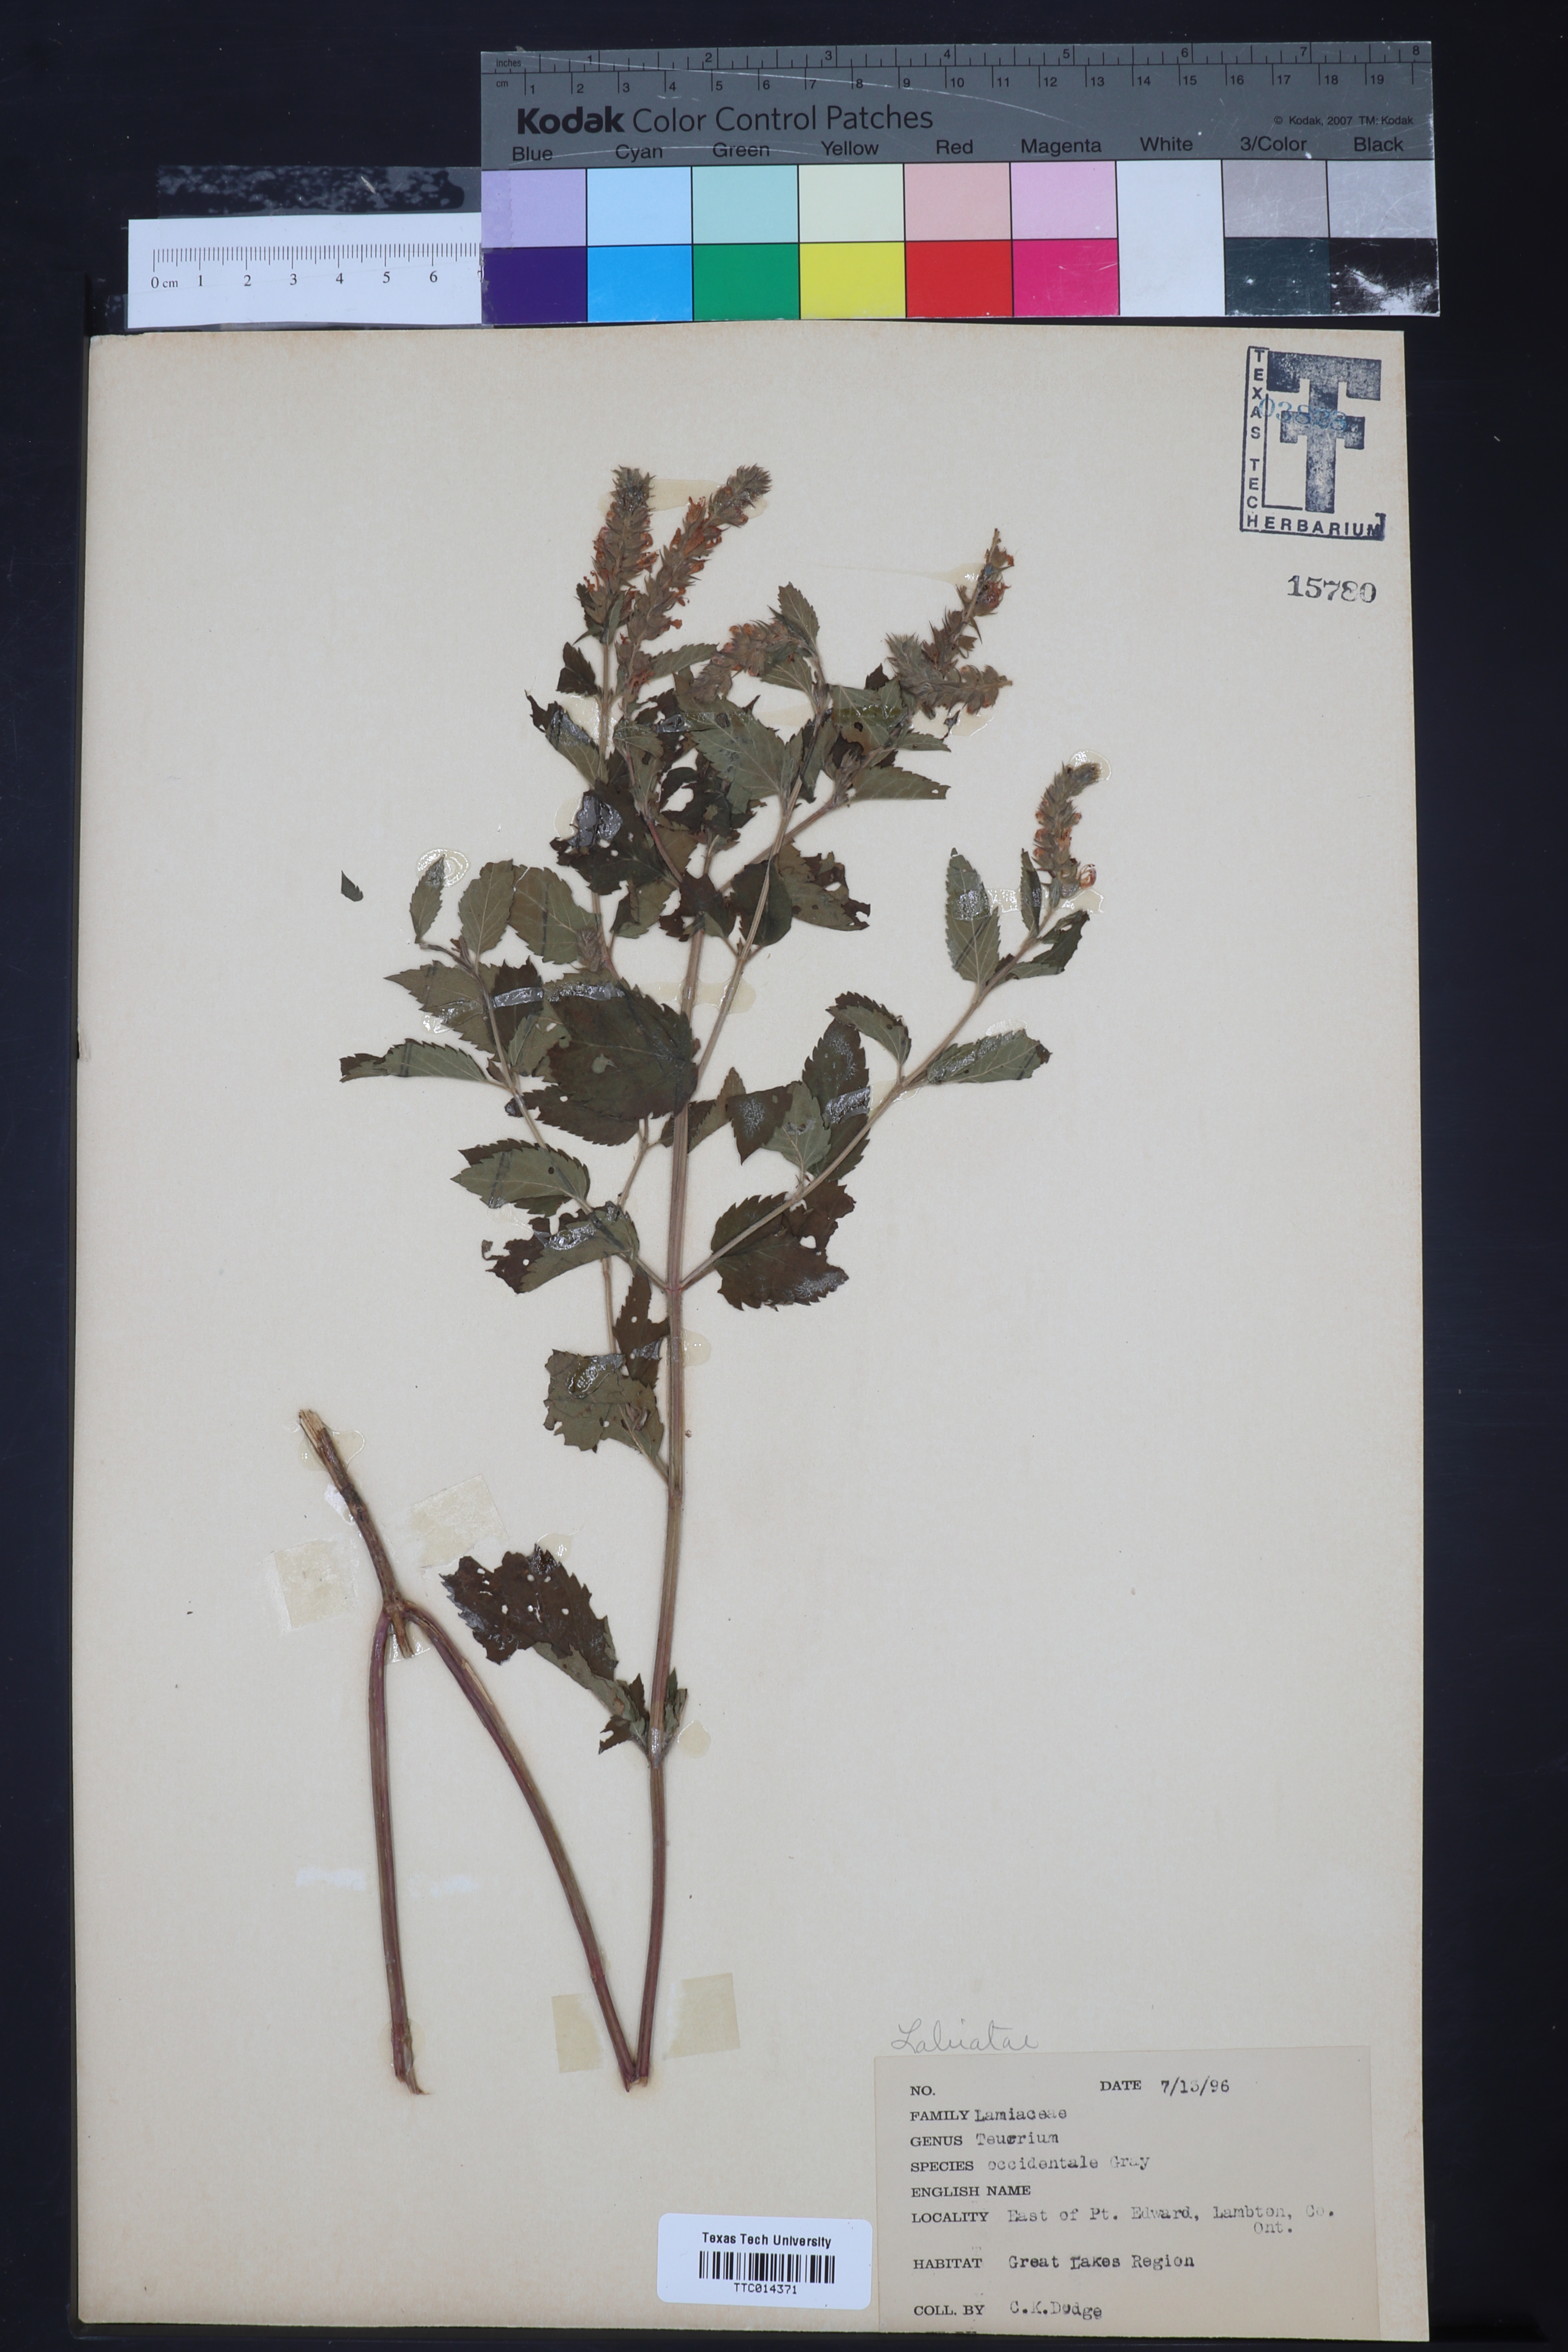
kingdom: Plantae
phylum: Tracheophyta
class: Magnoliopsida
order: Lamiales
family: Lamiaceae
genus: Teucrium
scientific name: Teucrium canadense
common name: American germander
